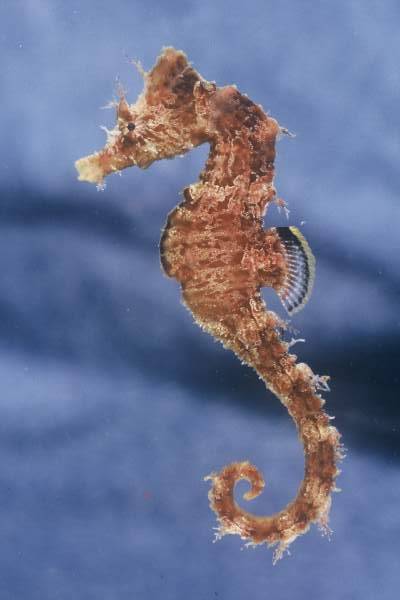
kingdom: Animalia
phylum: Chordata
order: Syngnathiformes
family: Syngnathidae
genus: Hippocampus
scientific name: Hippocampus guttulatus
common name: Long-snouted seahorse
